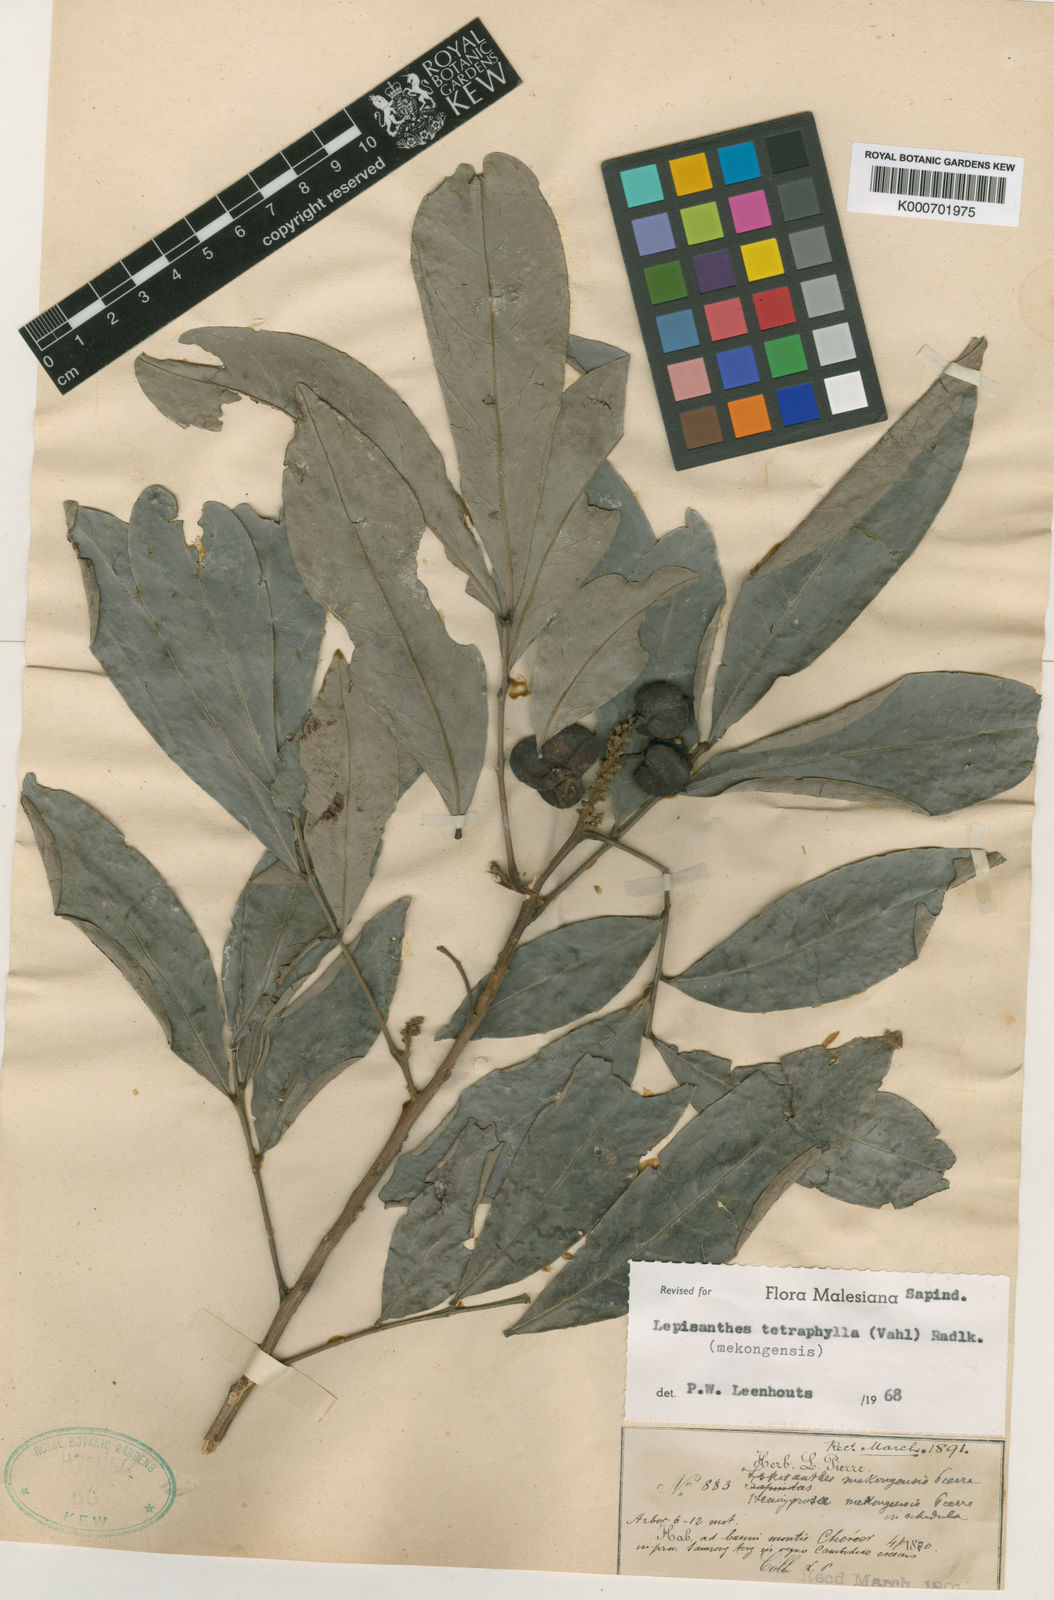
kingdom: Plantae
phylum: Tracheophyta
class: Magnoliopsida
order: Sapindales
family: Sapindaceae
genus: Lepisanthes
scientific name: Lepisanthes tetraphylla
